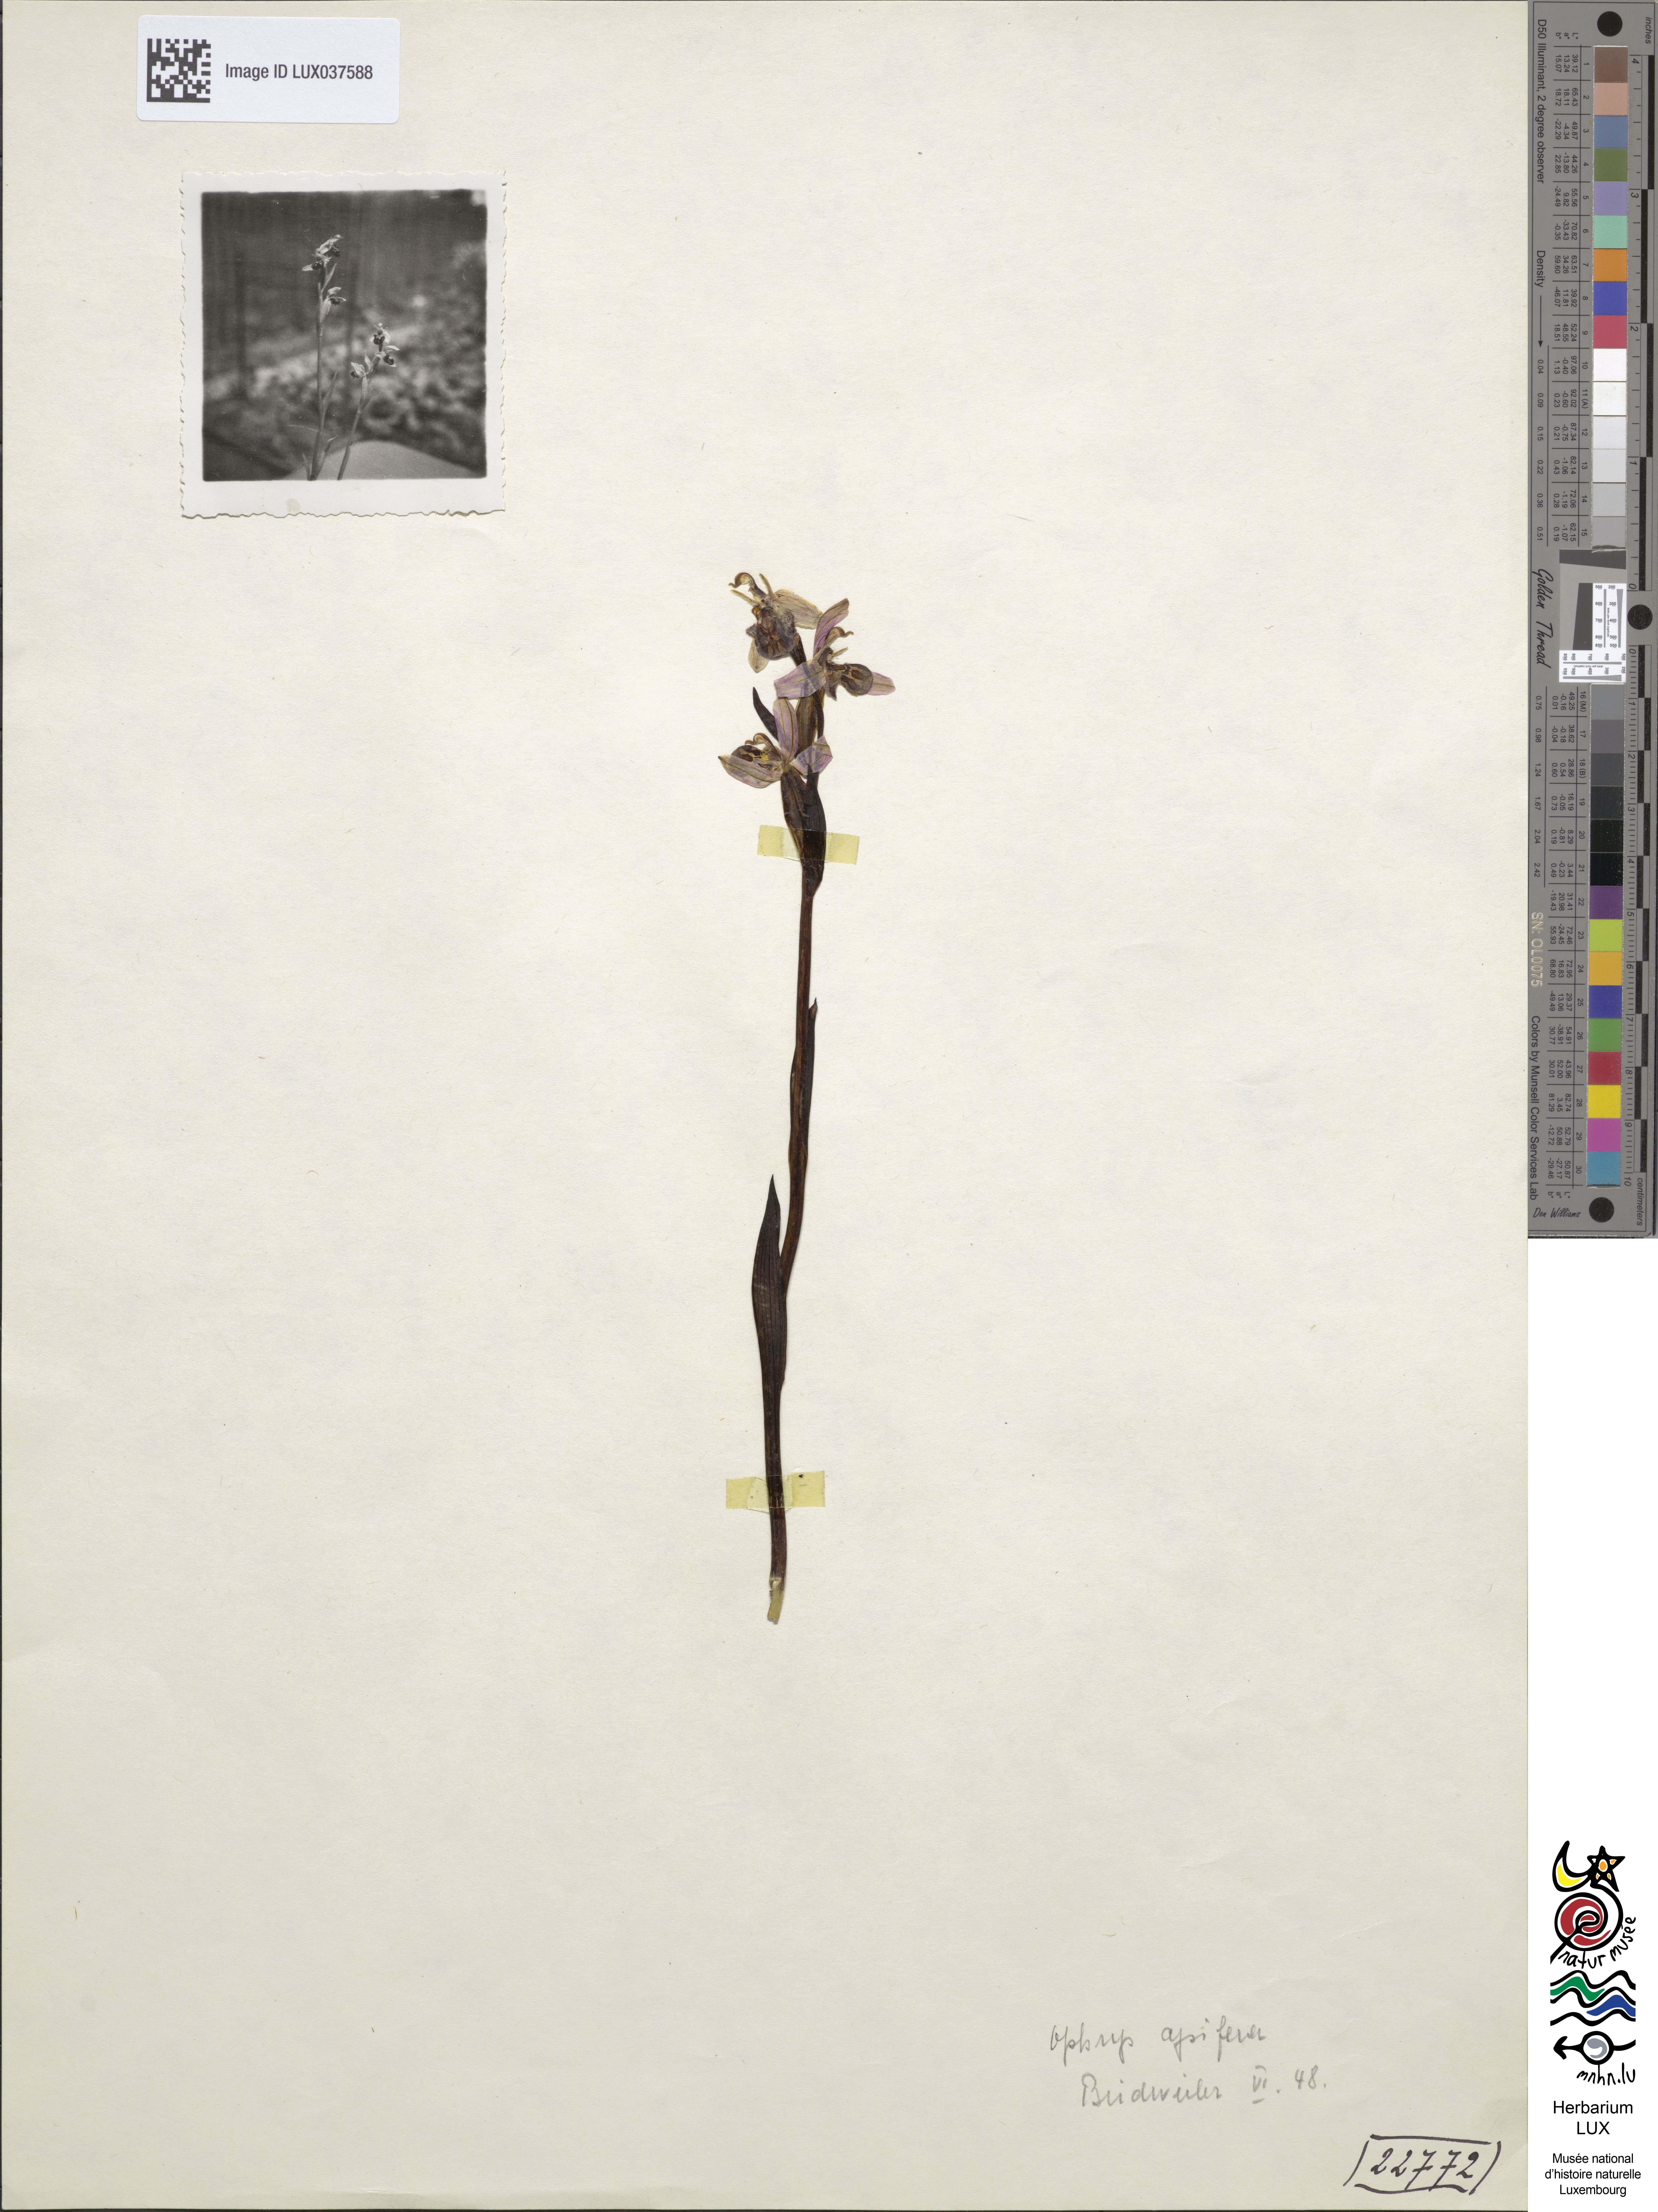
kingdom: Plantae
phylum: Tracheophyta
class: Liliopsida
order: Asparagales
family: Orchidaceae
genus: Ophrys
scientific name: Ophrys apifera
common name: Bee orchid
